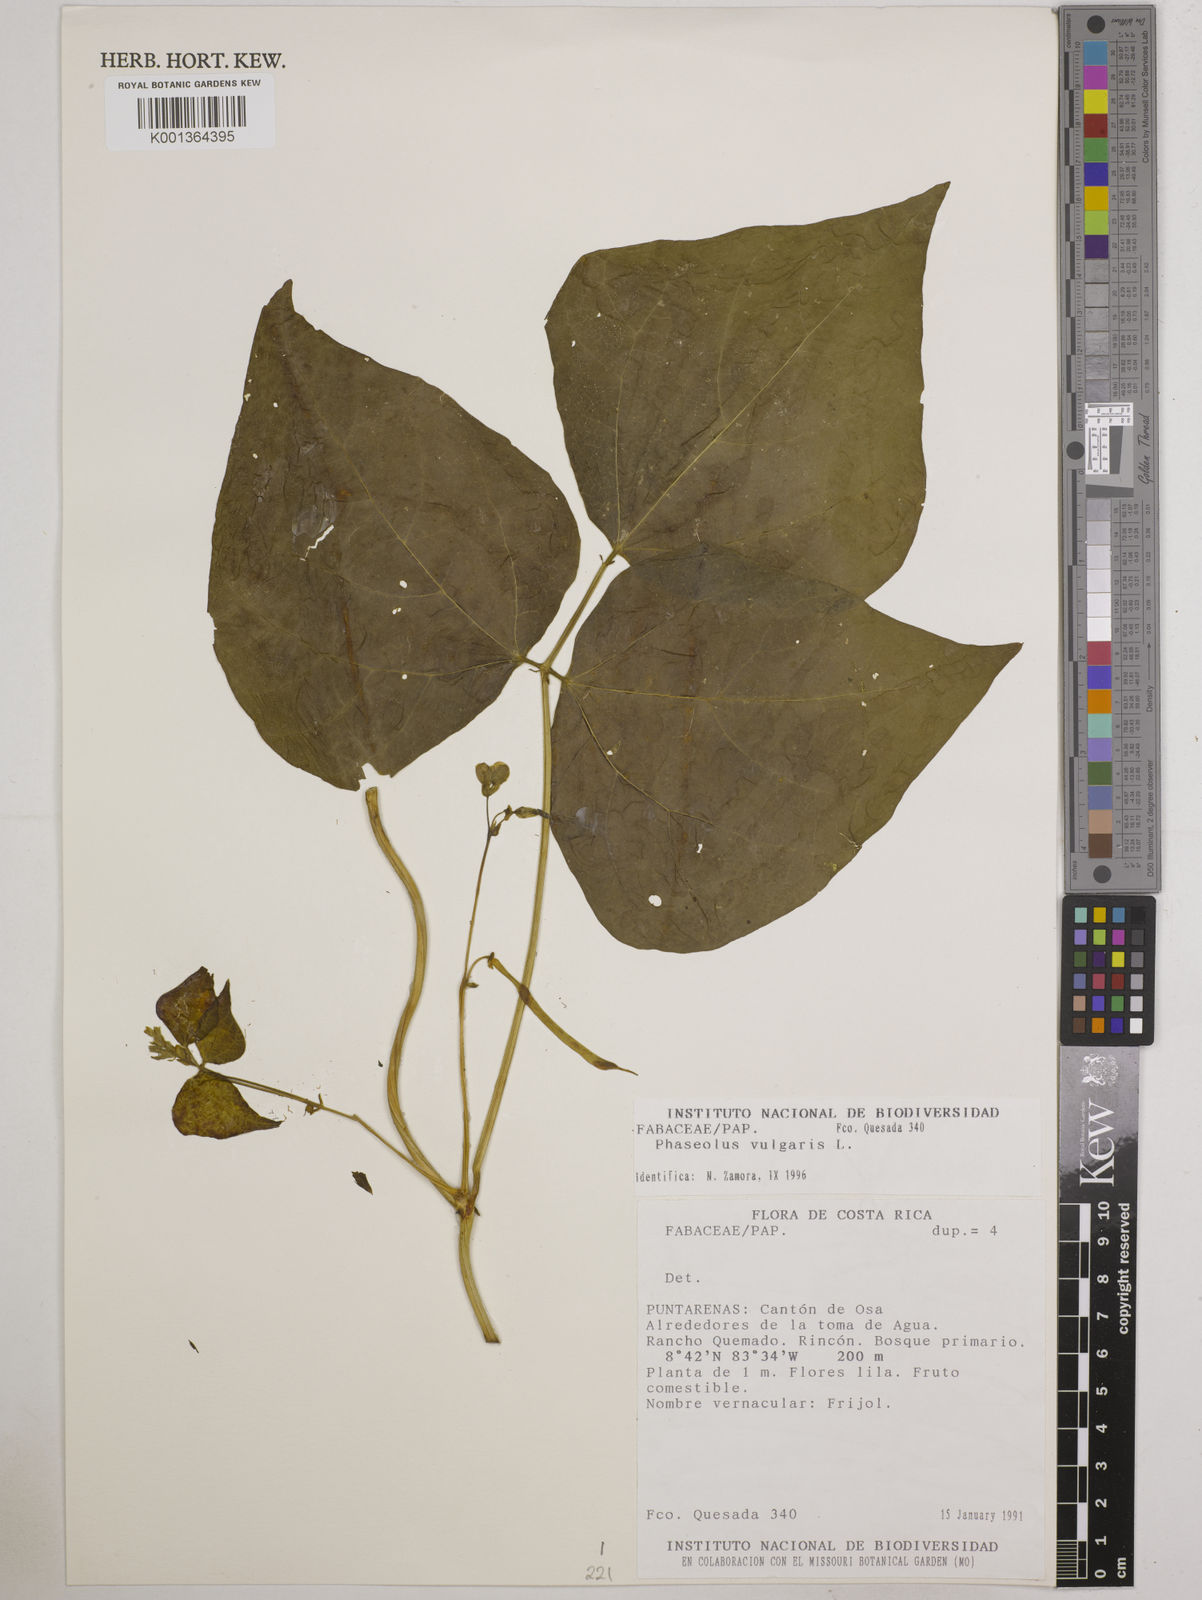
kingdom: Plantae
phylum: Tracheophyta
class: Magnoliopsida
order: Fabales
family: Fabaceae
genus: Phaseolus
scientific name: Phaseolus vulgaris
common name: Bean
